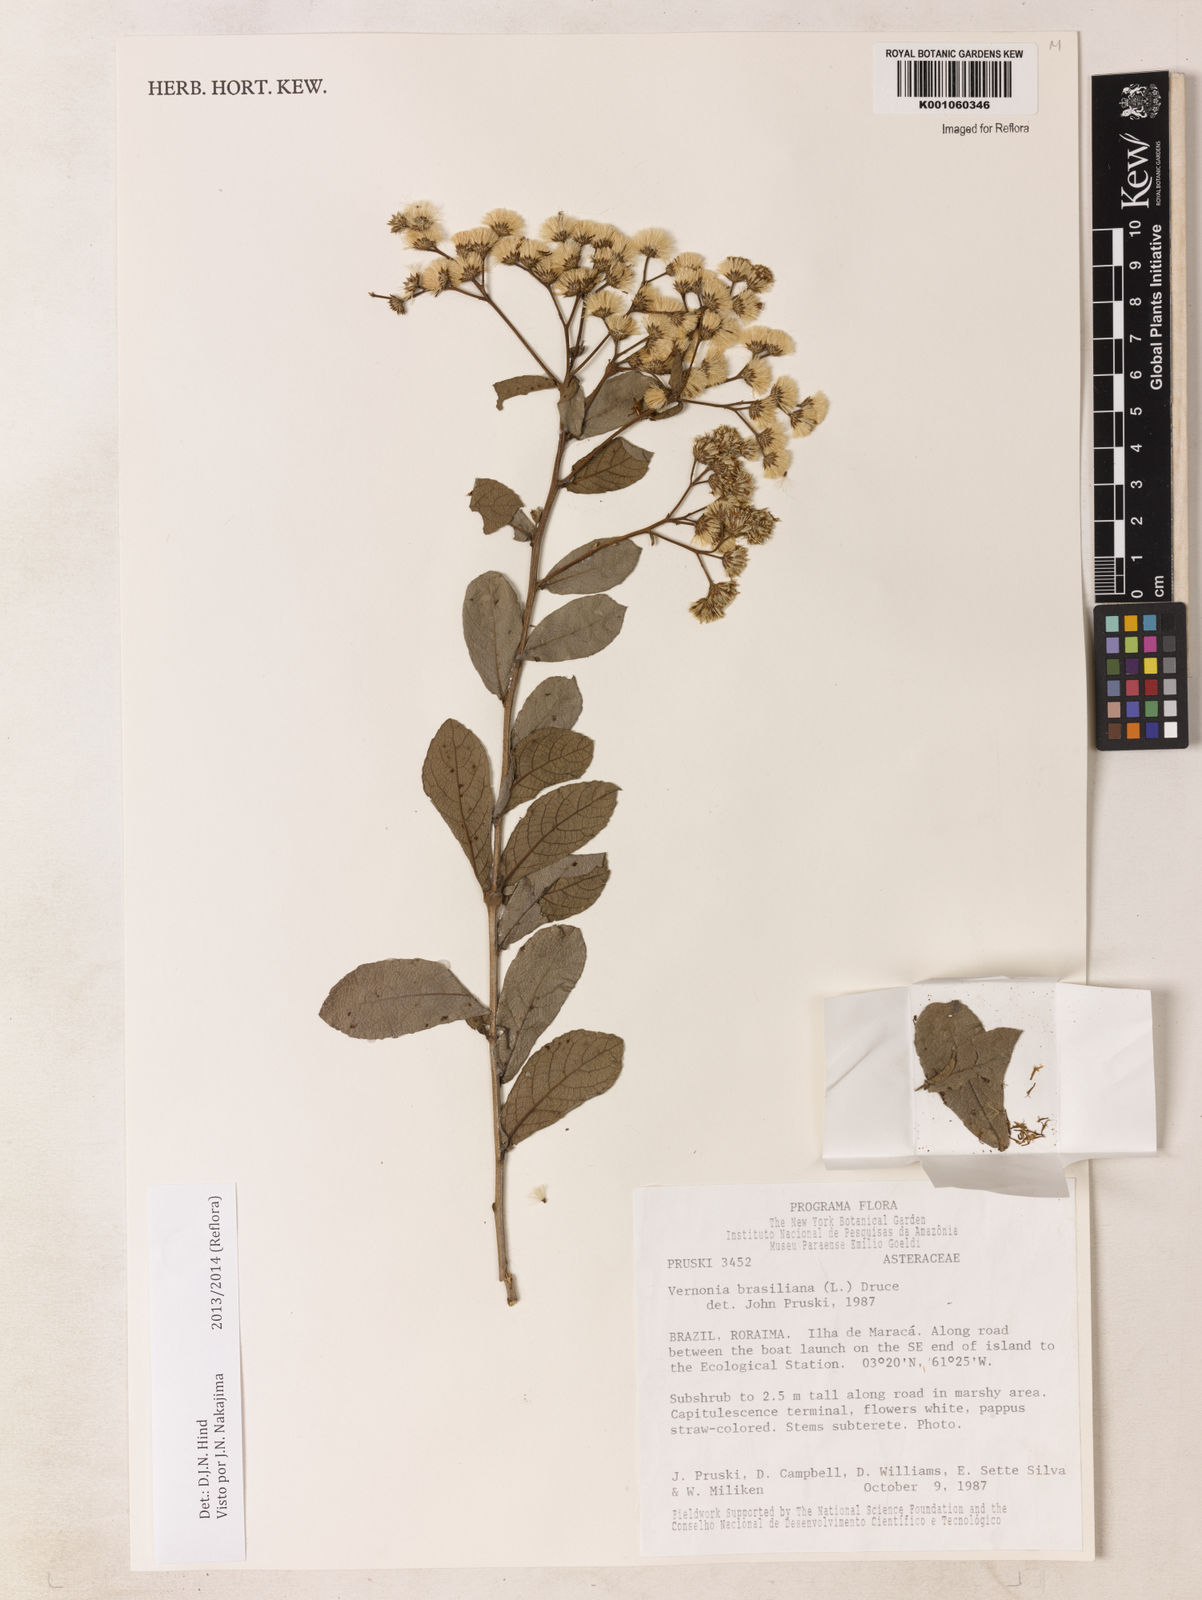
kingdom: Plantae
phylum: Tracheophyta
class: Magnoliopsida
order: Asterales
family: Asteraceae
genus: Vernonanthura
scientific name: Vernonanthura brasiliana
